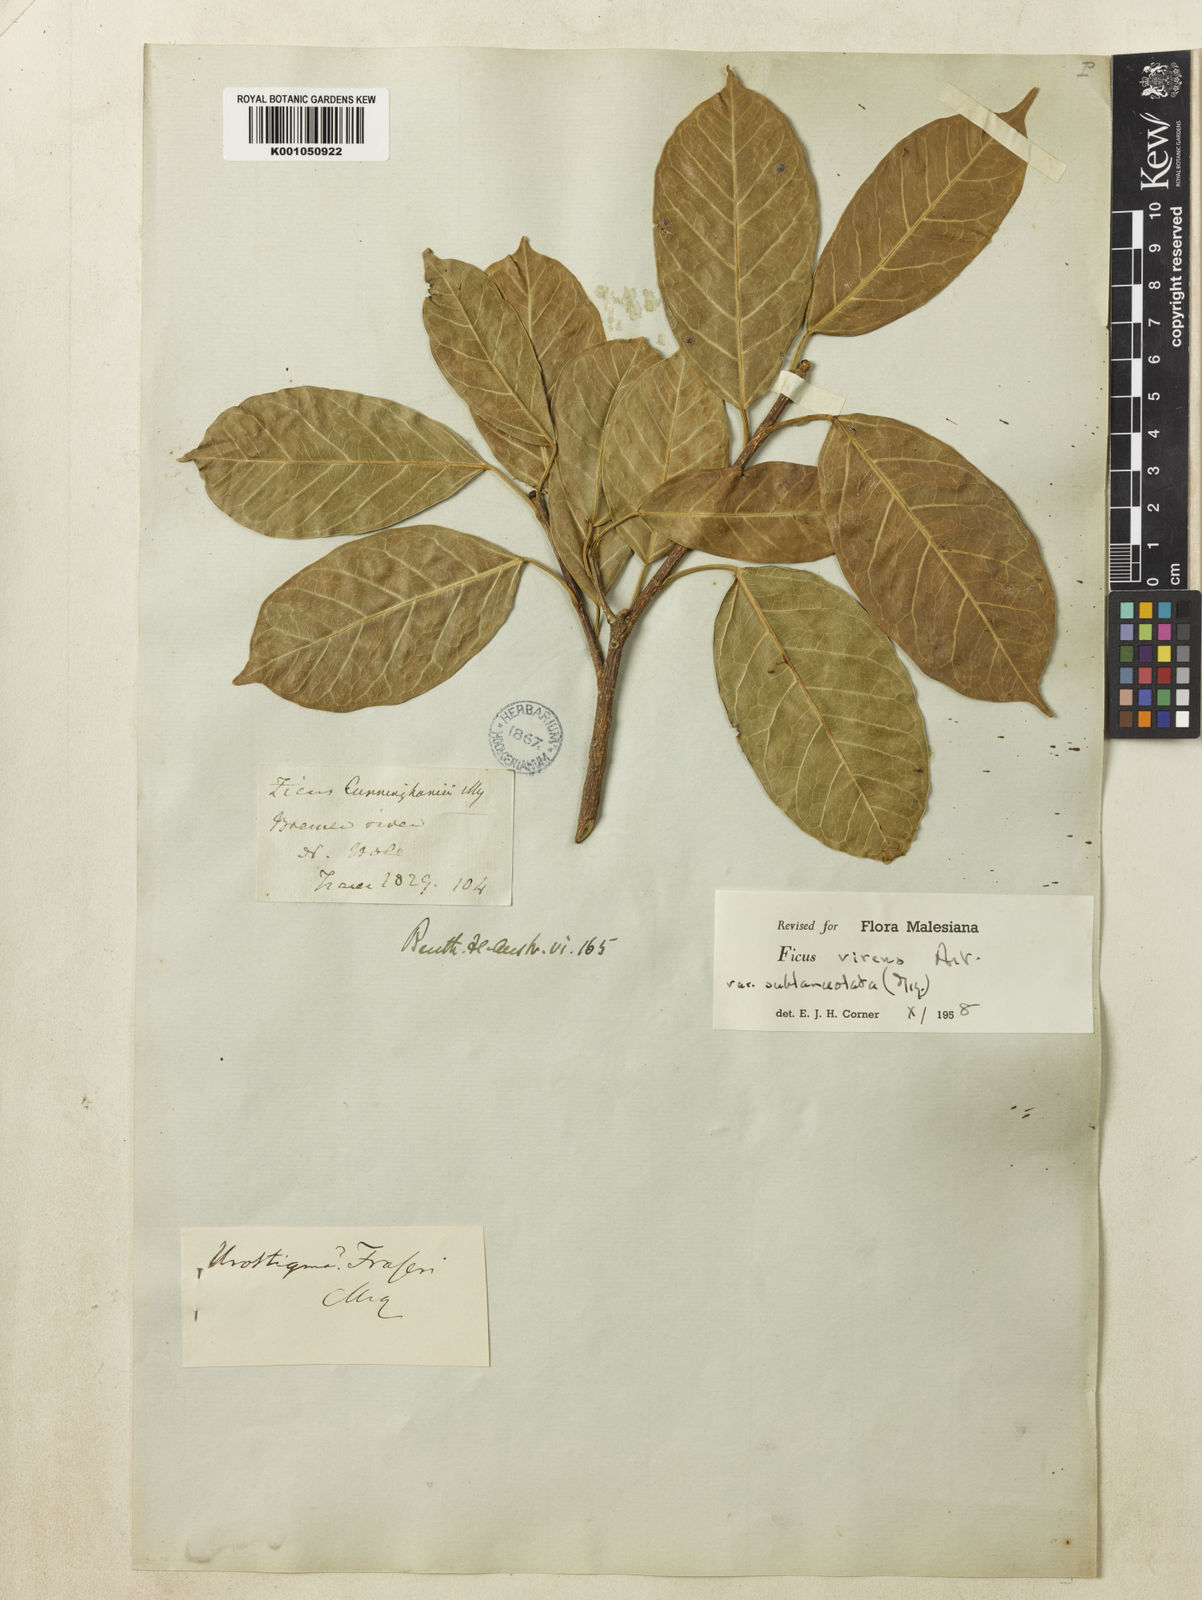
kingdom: Plantae
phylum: Tracheophyta
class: Magnoliopsida
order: Rosales
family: Moraceae
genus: Ficus
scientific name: Ficus virens
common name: Spotted fig
